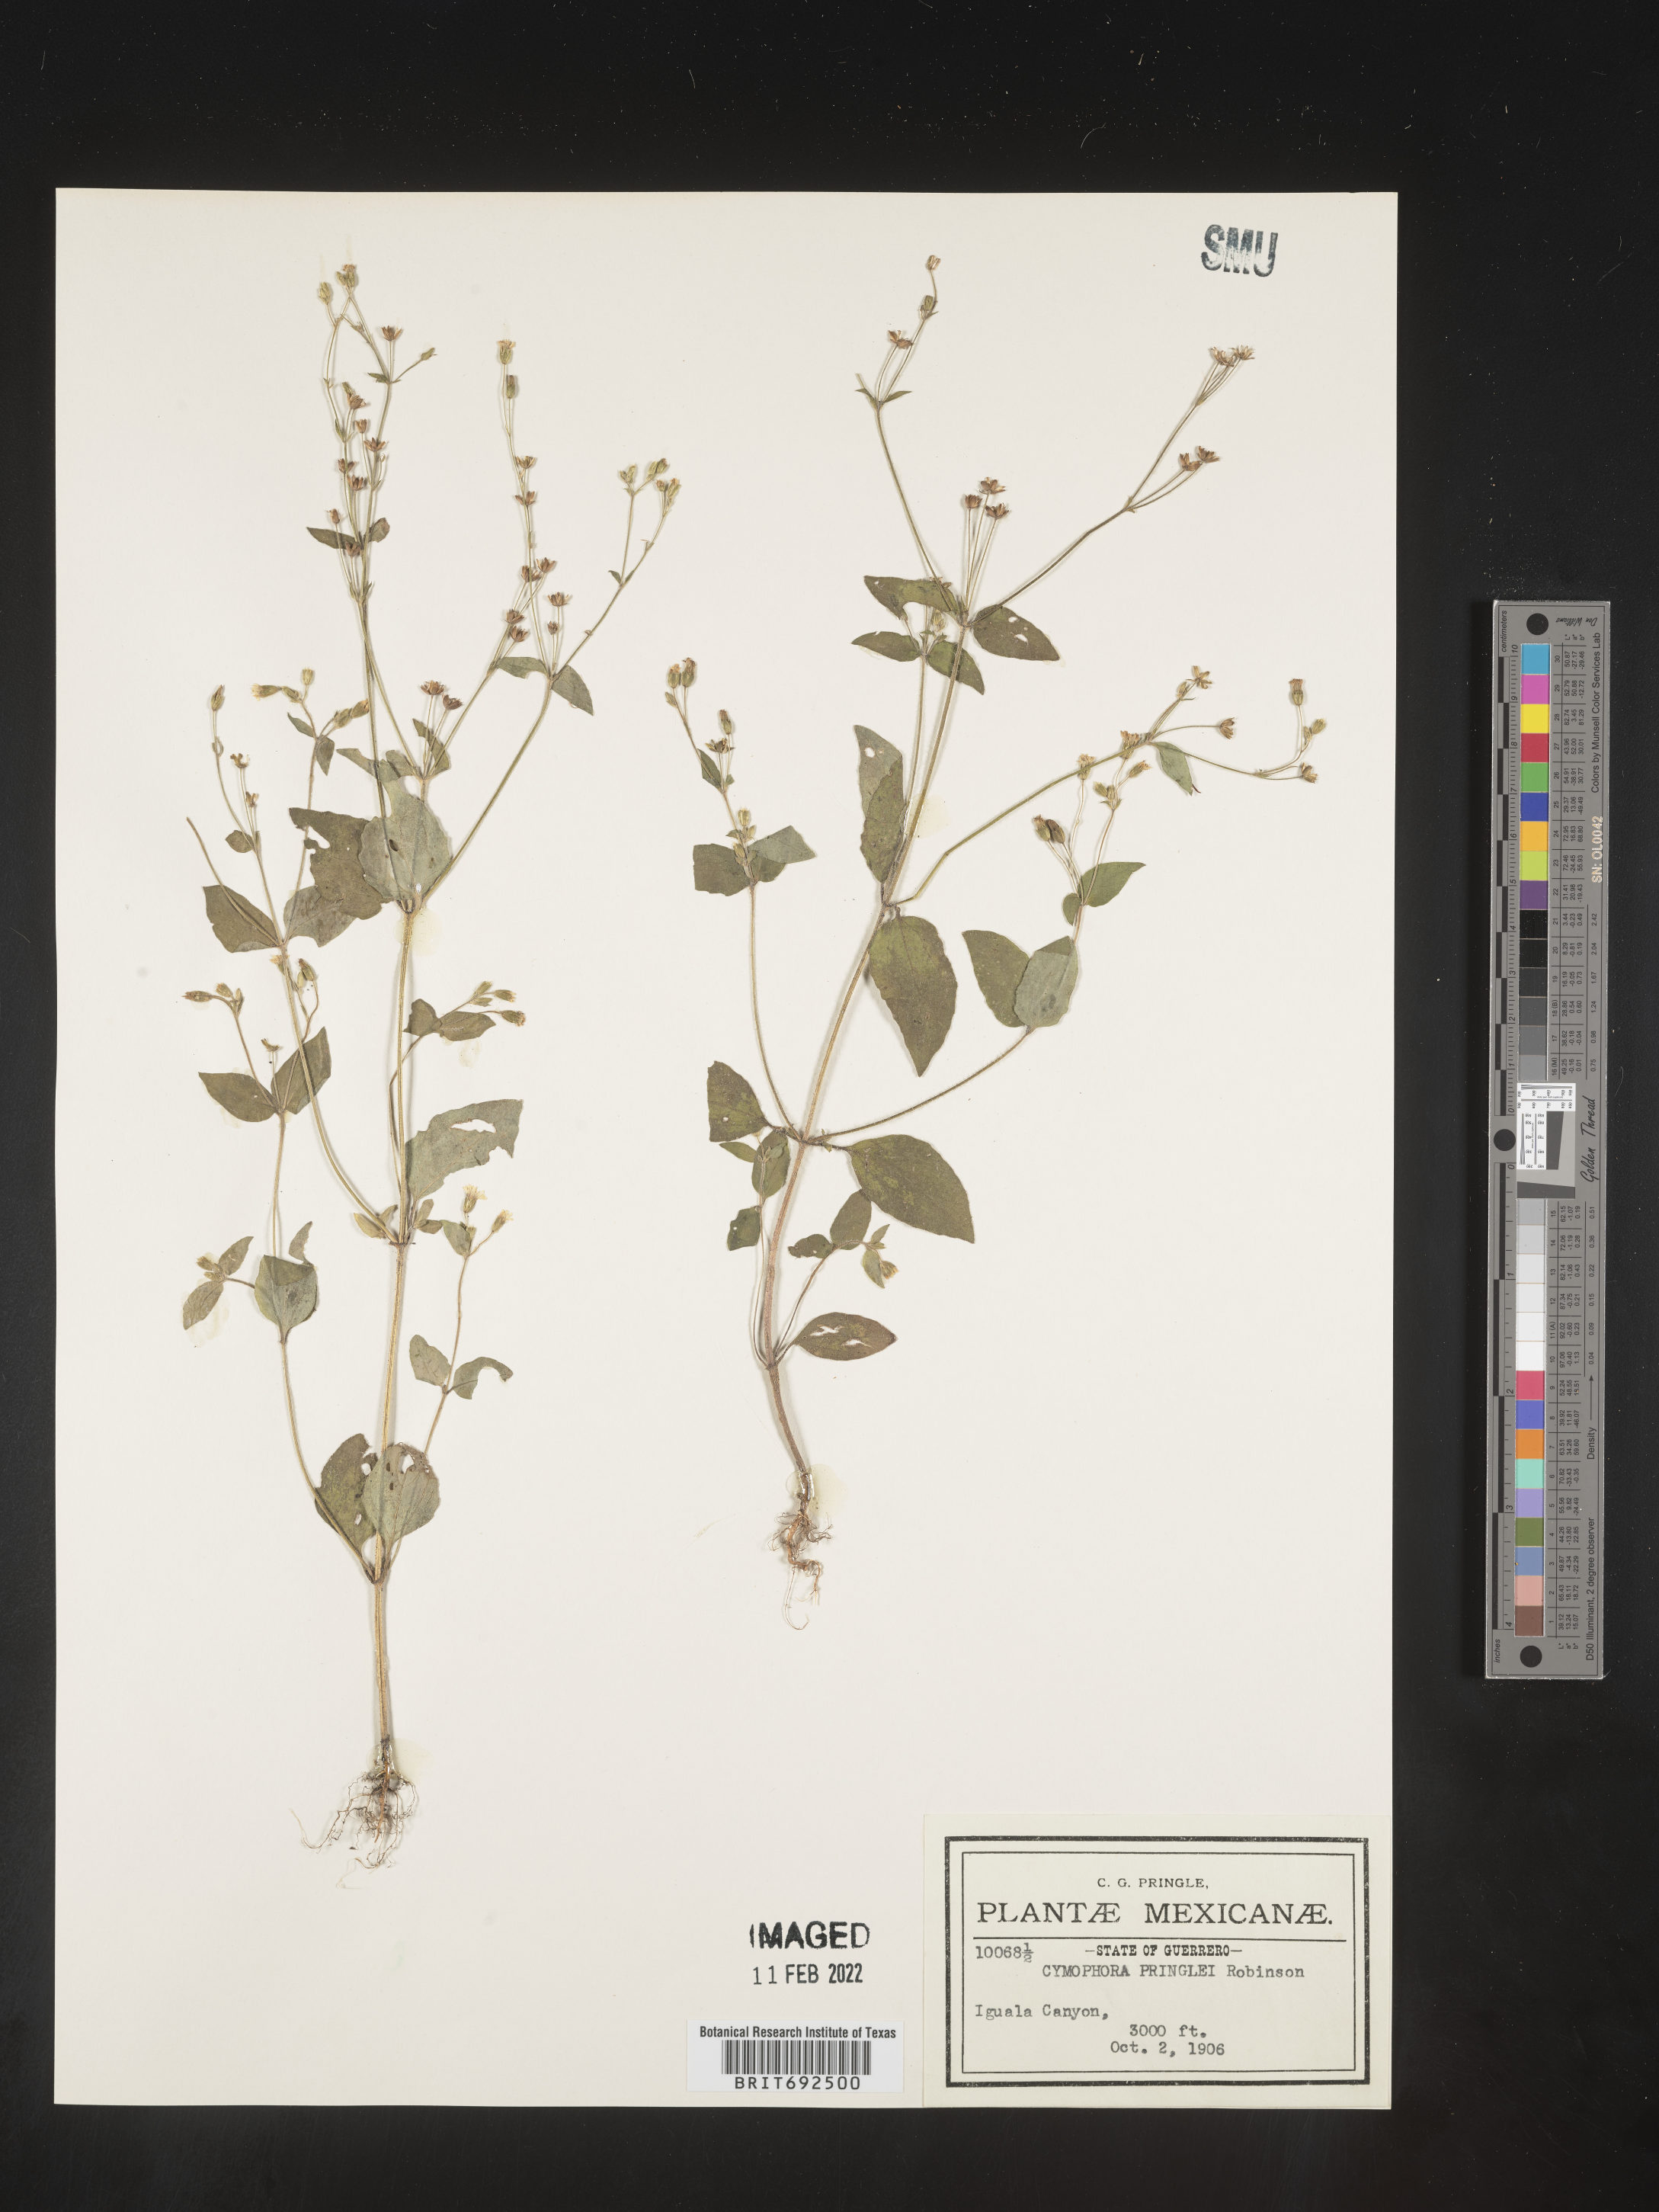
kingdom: Plantae
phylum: Tracheophyta
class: Magnoliopsida
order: Asterales
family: Asteraceae
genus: Cymophora
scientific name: Cymophora pringlei
